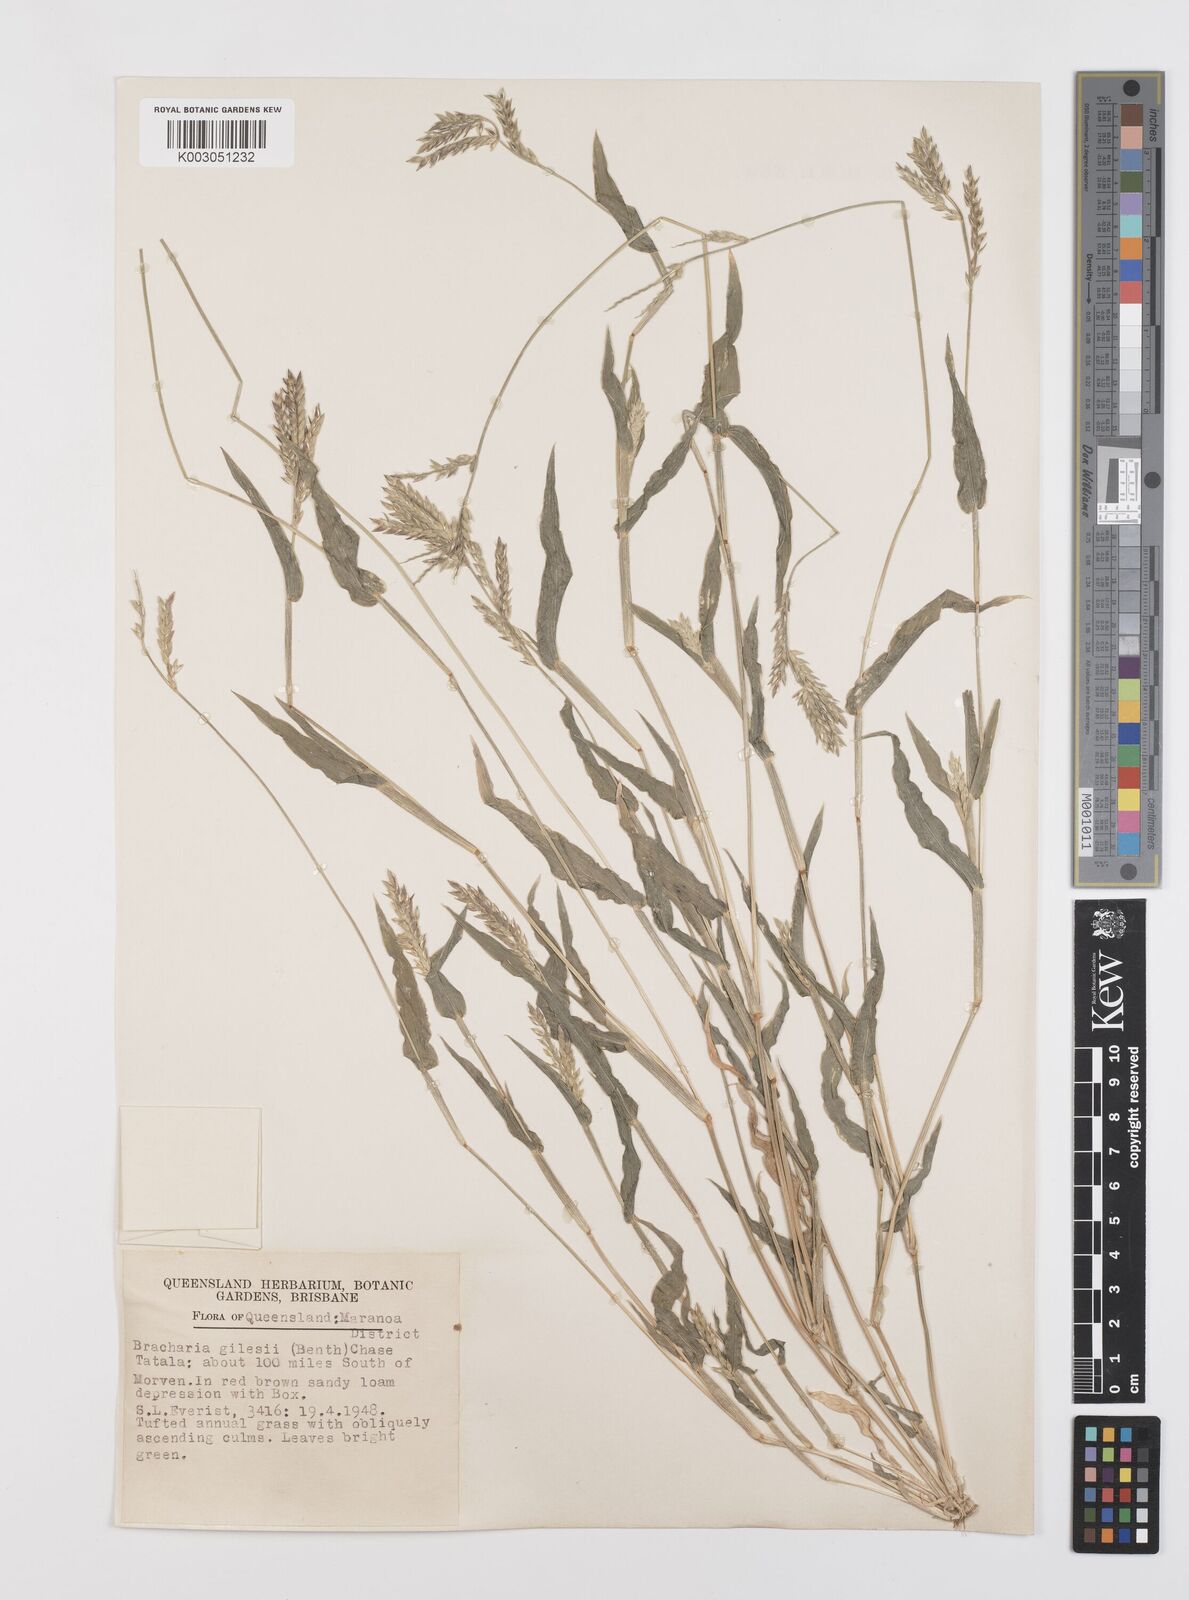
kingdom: Plantae
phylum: Tracheophyta
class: Liliopsida
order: Poales
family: Poaceae
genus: Urochloa
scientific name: Urochloa gilesii
